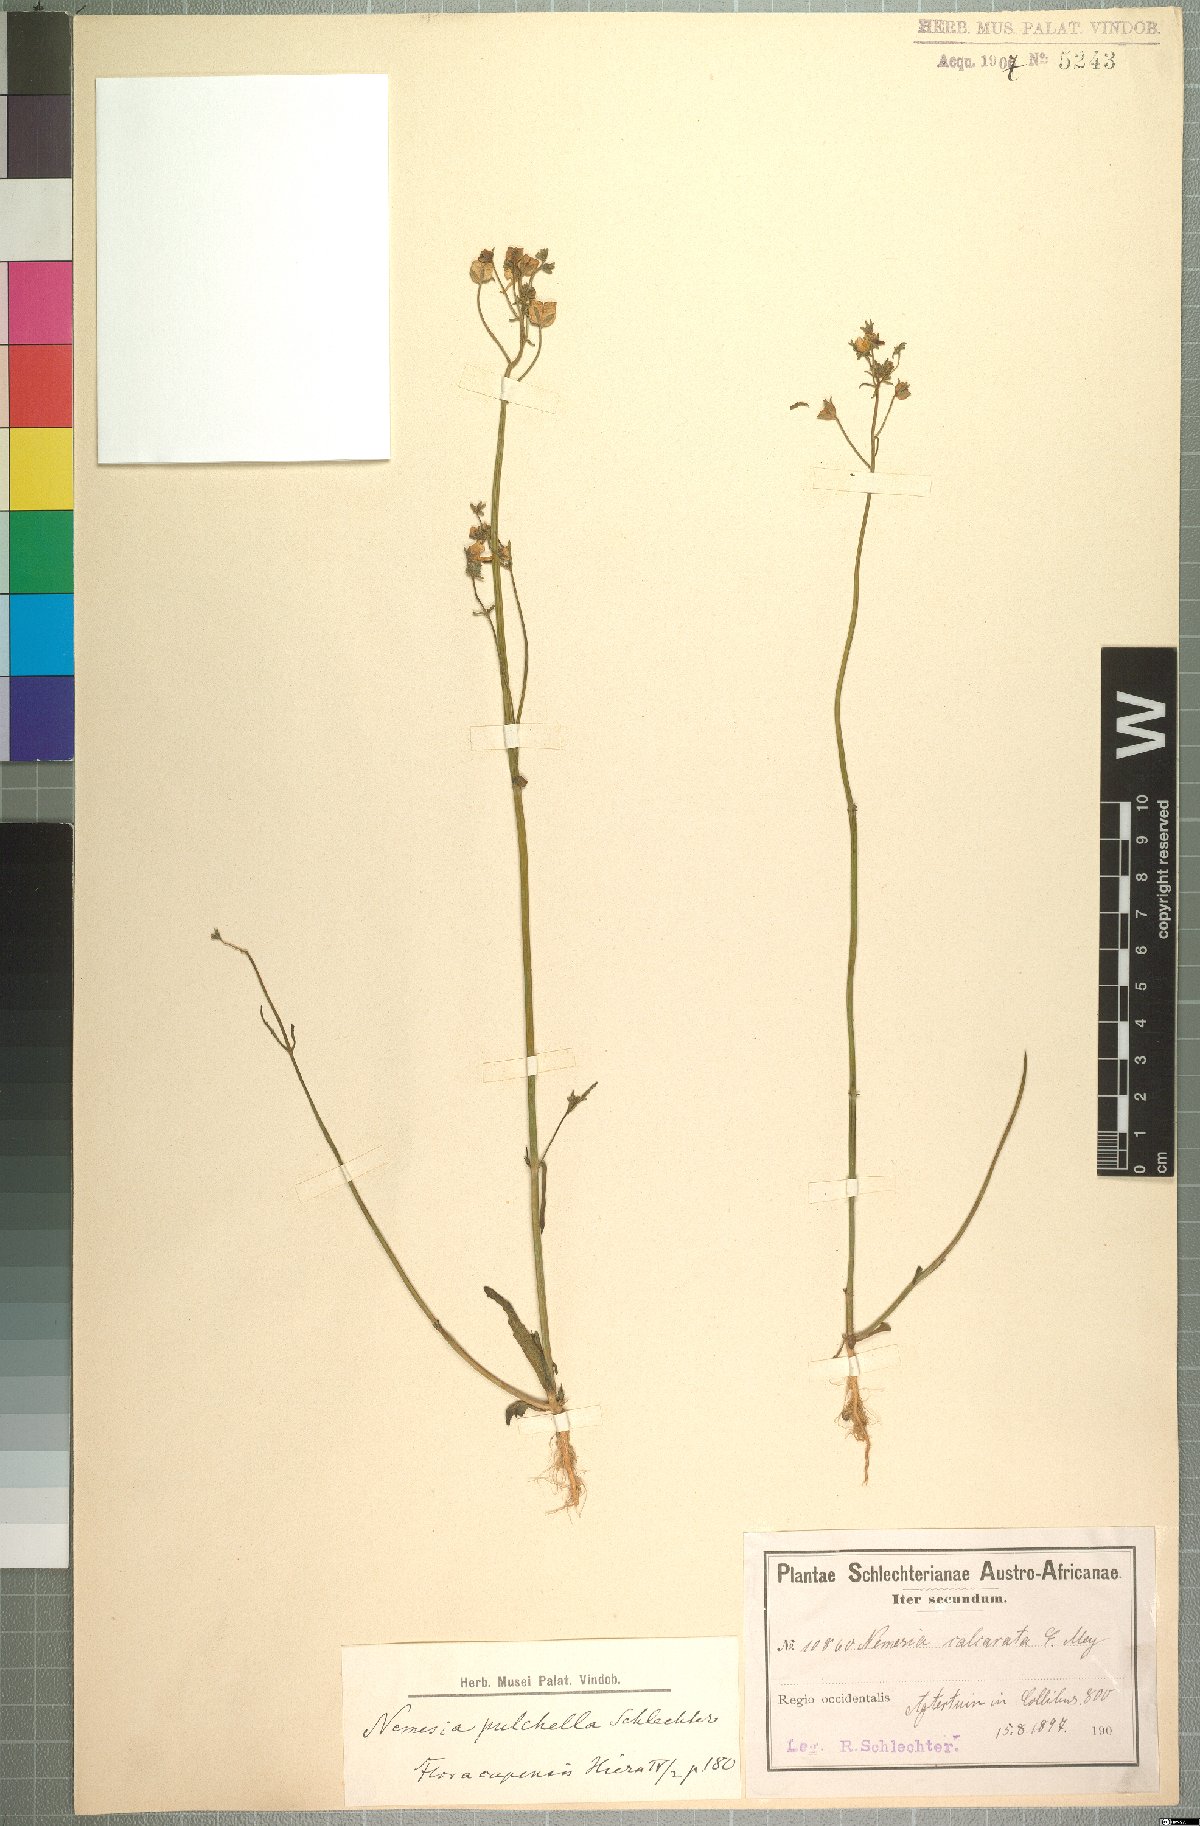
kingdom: Plantae
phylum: Tracheophyta
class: Magnoliopsida
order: Lamiales
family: Scrophulariaceae
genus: Nemesia
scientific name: Nemesia pulchella
